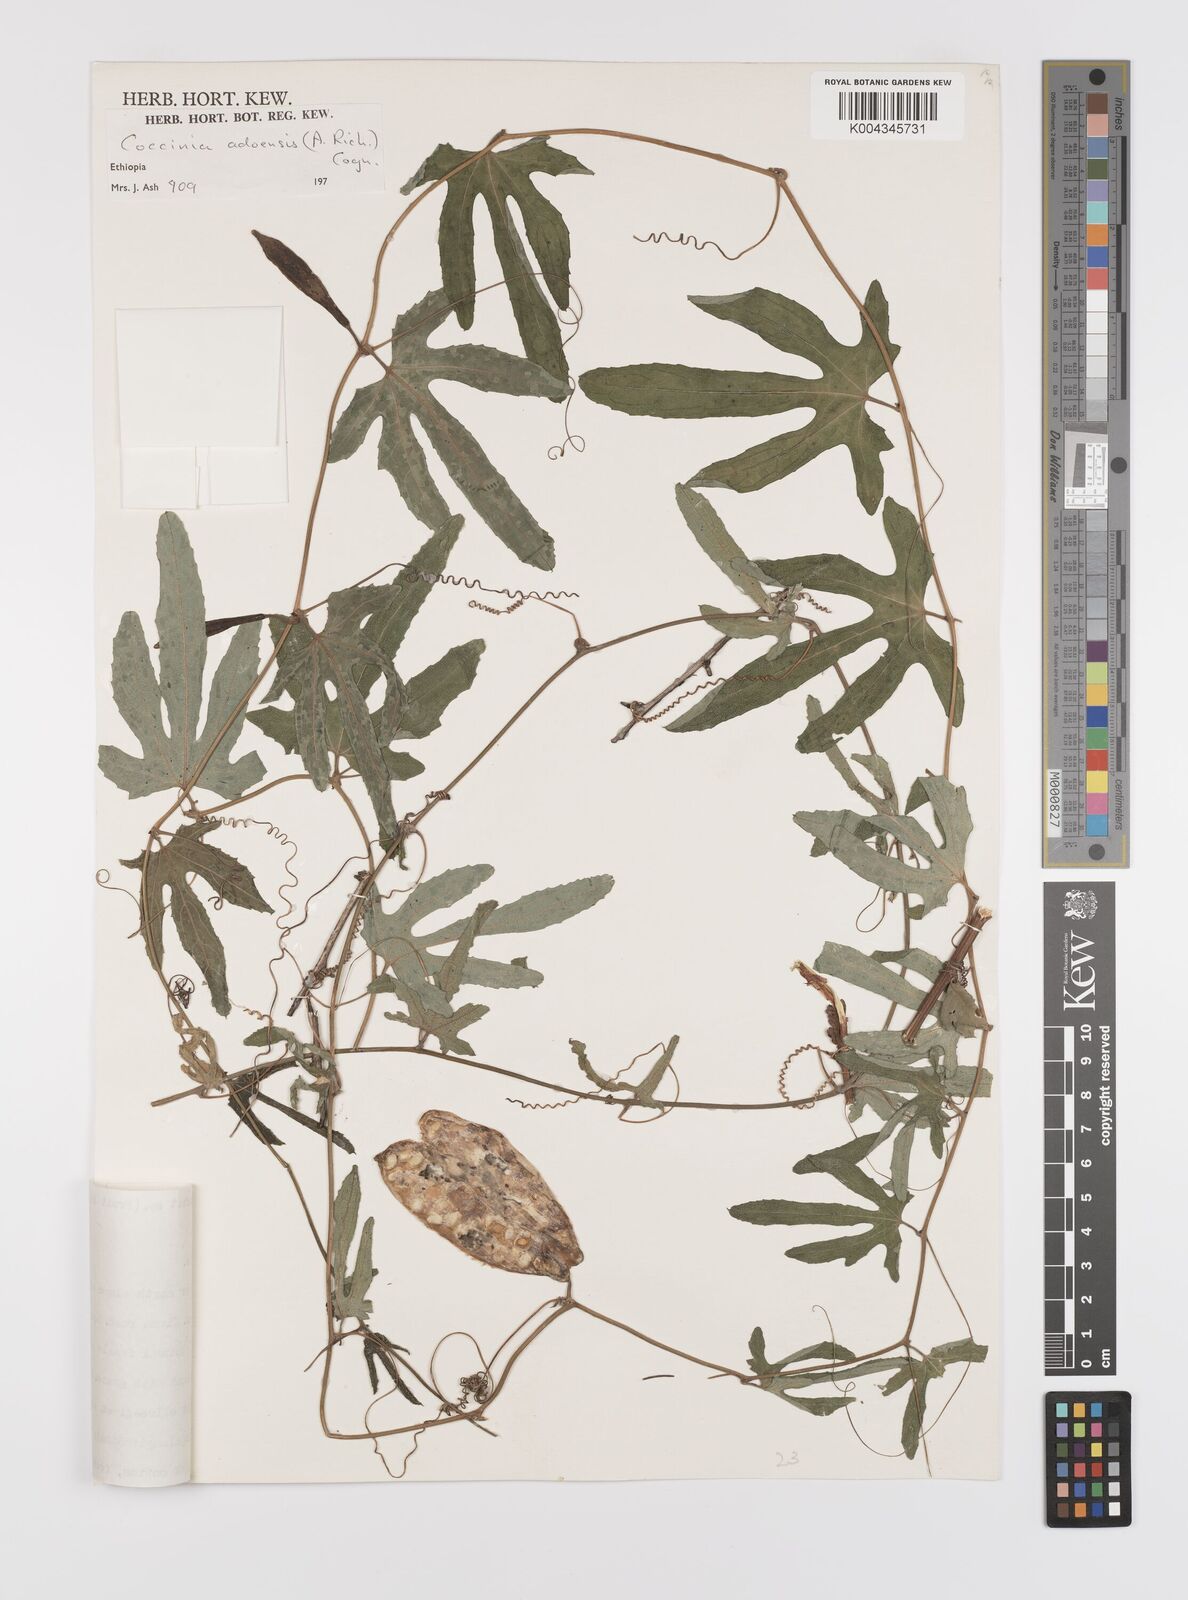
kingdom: Plantae
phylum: Tracheophyta
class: Magnoliopsida
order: Cucurbitales
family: Cucurbitaceae
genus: Coccinia
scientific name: Coccinia adoensis
